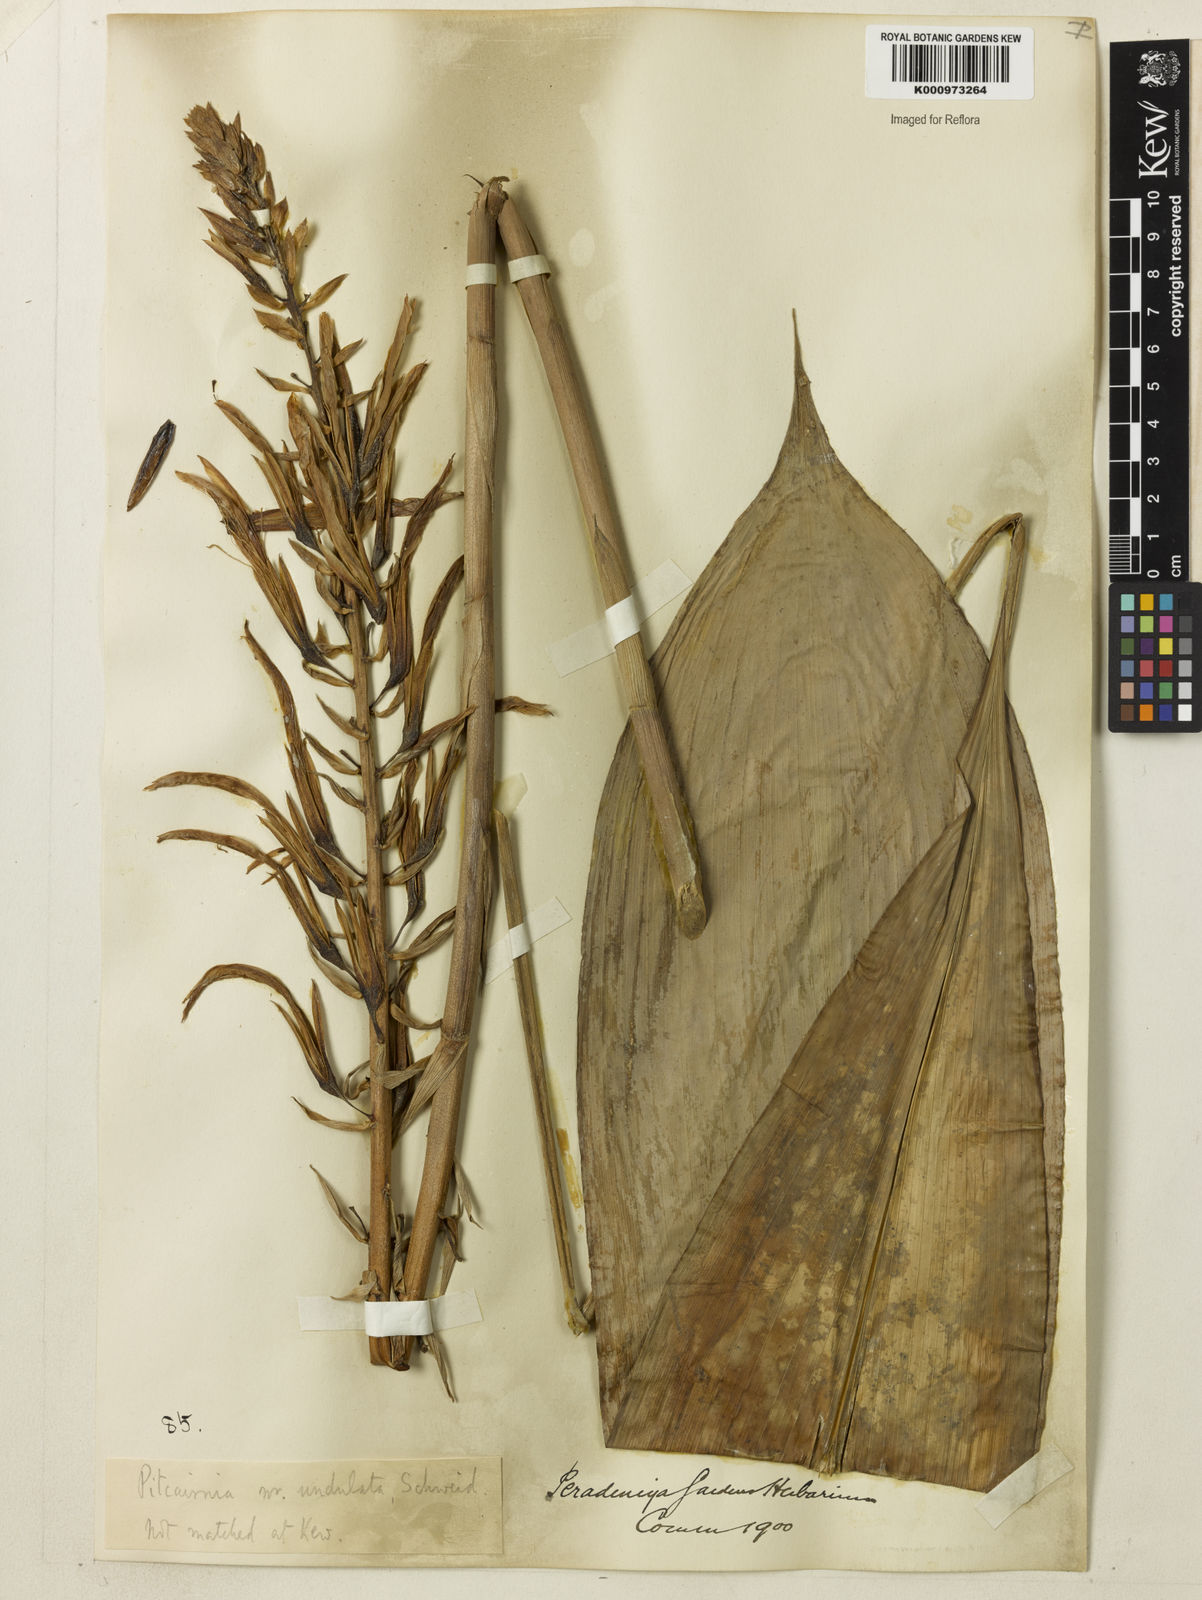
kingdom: Plantae
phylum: Tracheophyta
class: Liliopsida
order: Poales
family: Bromeliaceae
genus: Pitcairnia
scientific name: Pitcairnia undulata
